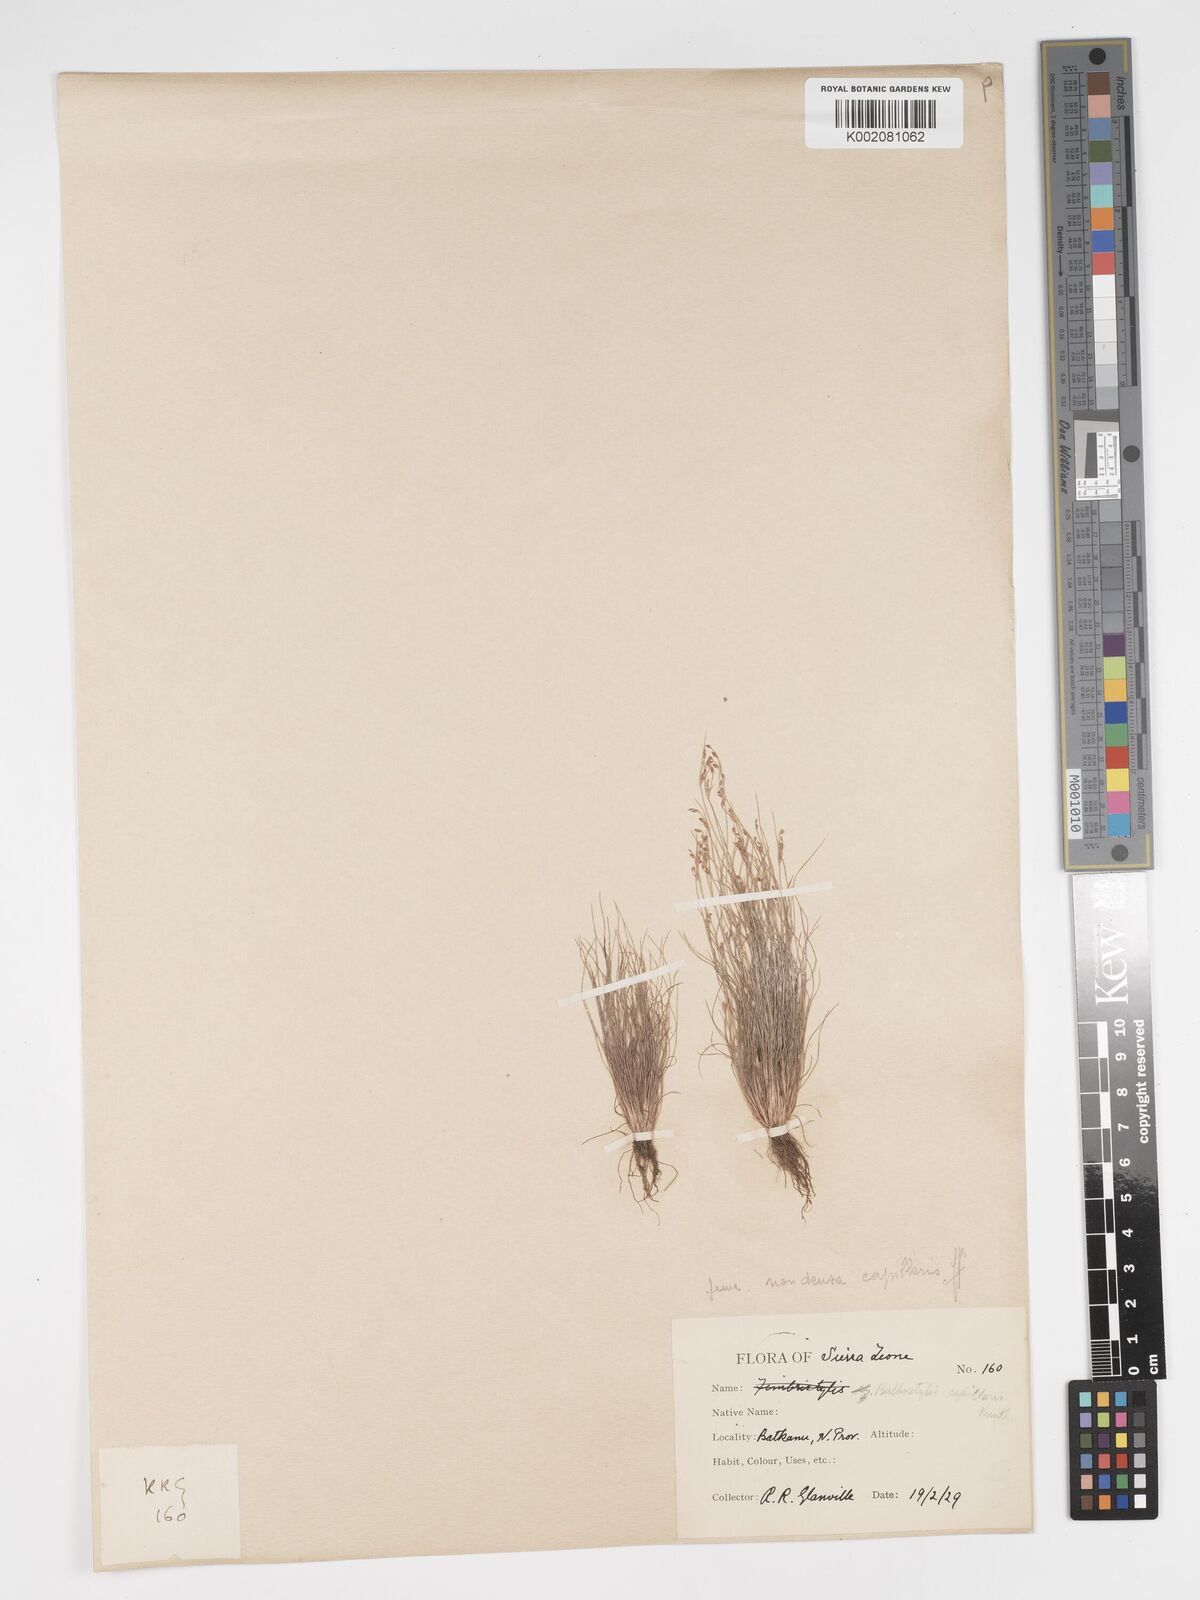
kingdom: Plantae
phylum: Tracheophyta
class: Liliopsida
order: Poales
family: Cyperaceae
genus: Bulbostylis
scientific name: Bulbostylis densa
